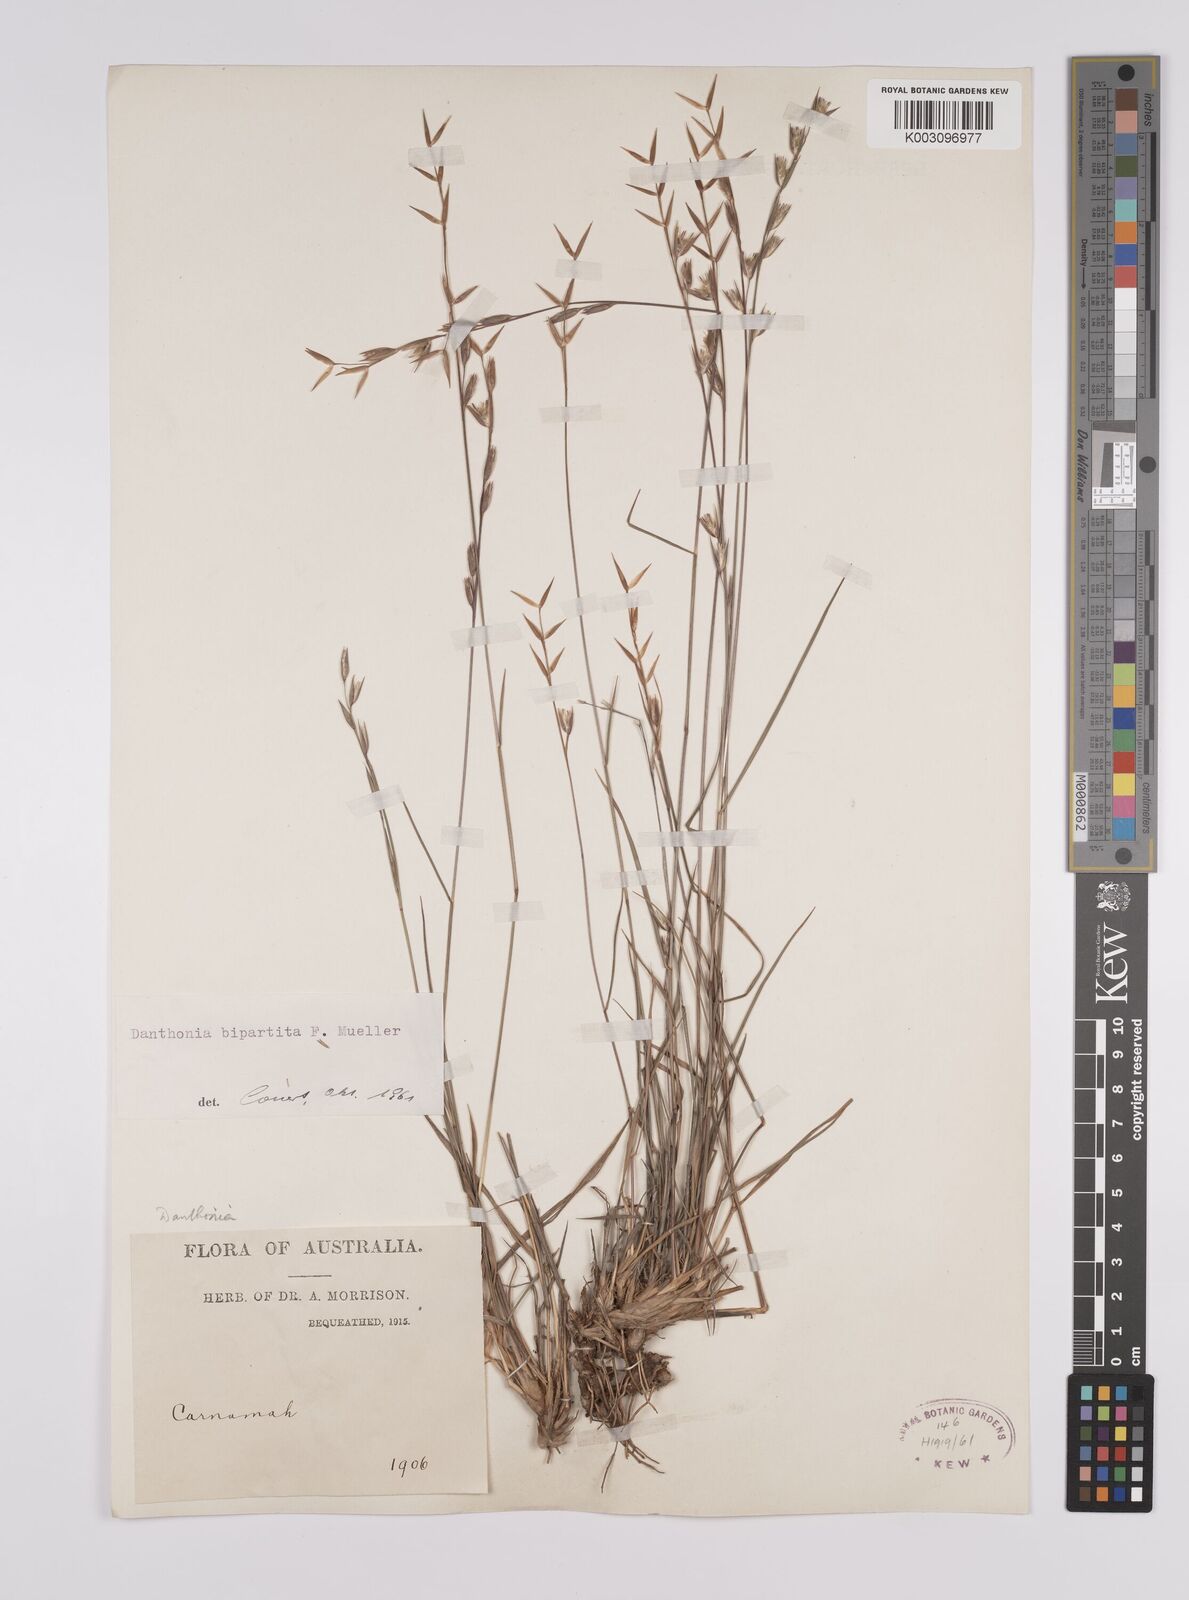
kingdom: Plantae
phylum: Tracheophyta
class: Liliopsida
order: Poales
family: Poaceae
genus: Monachather
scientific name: Monachather paradoxus
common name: Bandicoot grass
